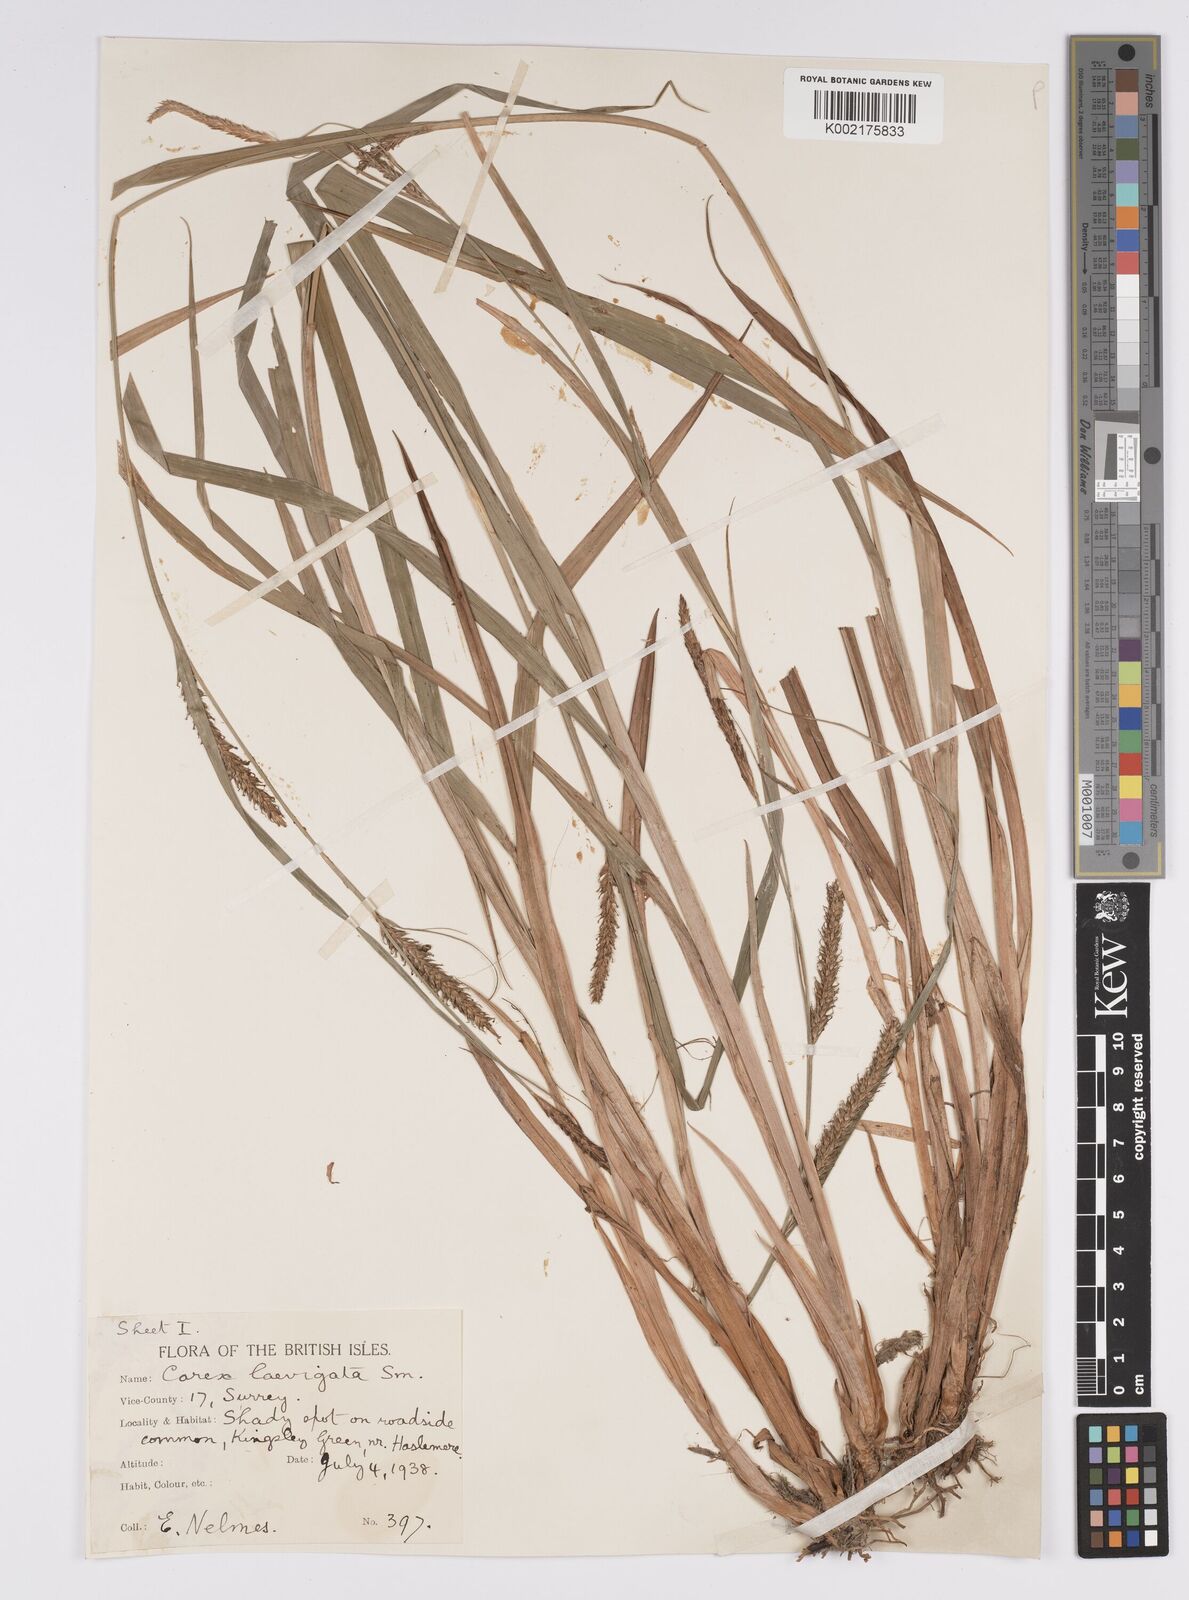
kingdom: Plantae
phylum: Tracheophyta
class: Liliopsida
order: Poales
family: Cyperaceae
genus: Carex
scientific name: Carex laevigata
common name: Smooth-stalked sedge
